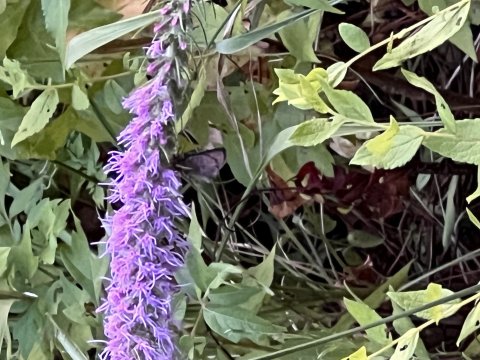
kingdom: Animalia
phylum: Arthropoda
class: Insecta
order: Lepidoptera
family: Hesperiidae
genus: Lerema
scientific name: Lerema accius
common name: Clouded Skipper
